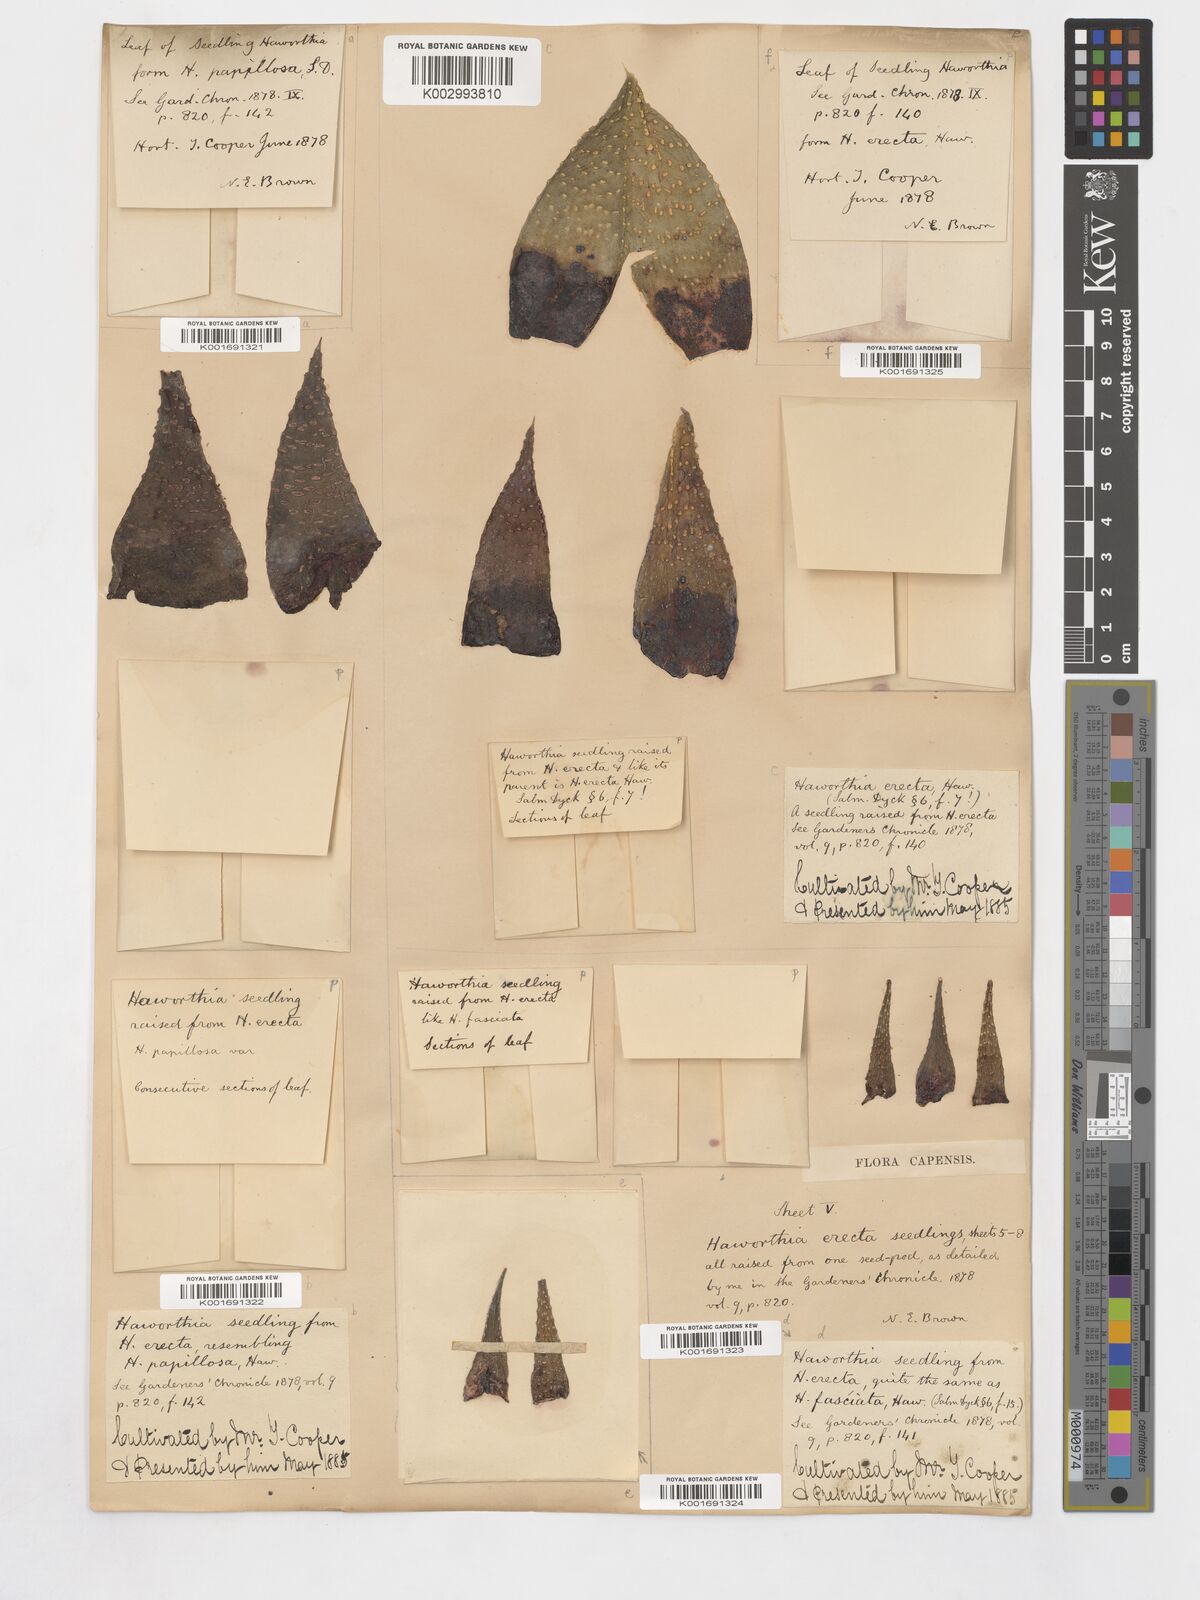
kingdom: Plantae
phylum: Tracheophyta
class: Liliopsida
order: Asparagales
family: Asphodelaceae
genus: Haworthiopsis
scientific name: Haworthiopsis fasciata
